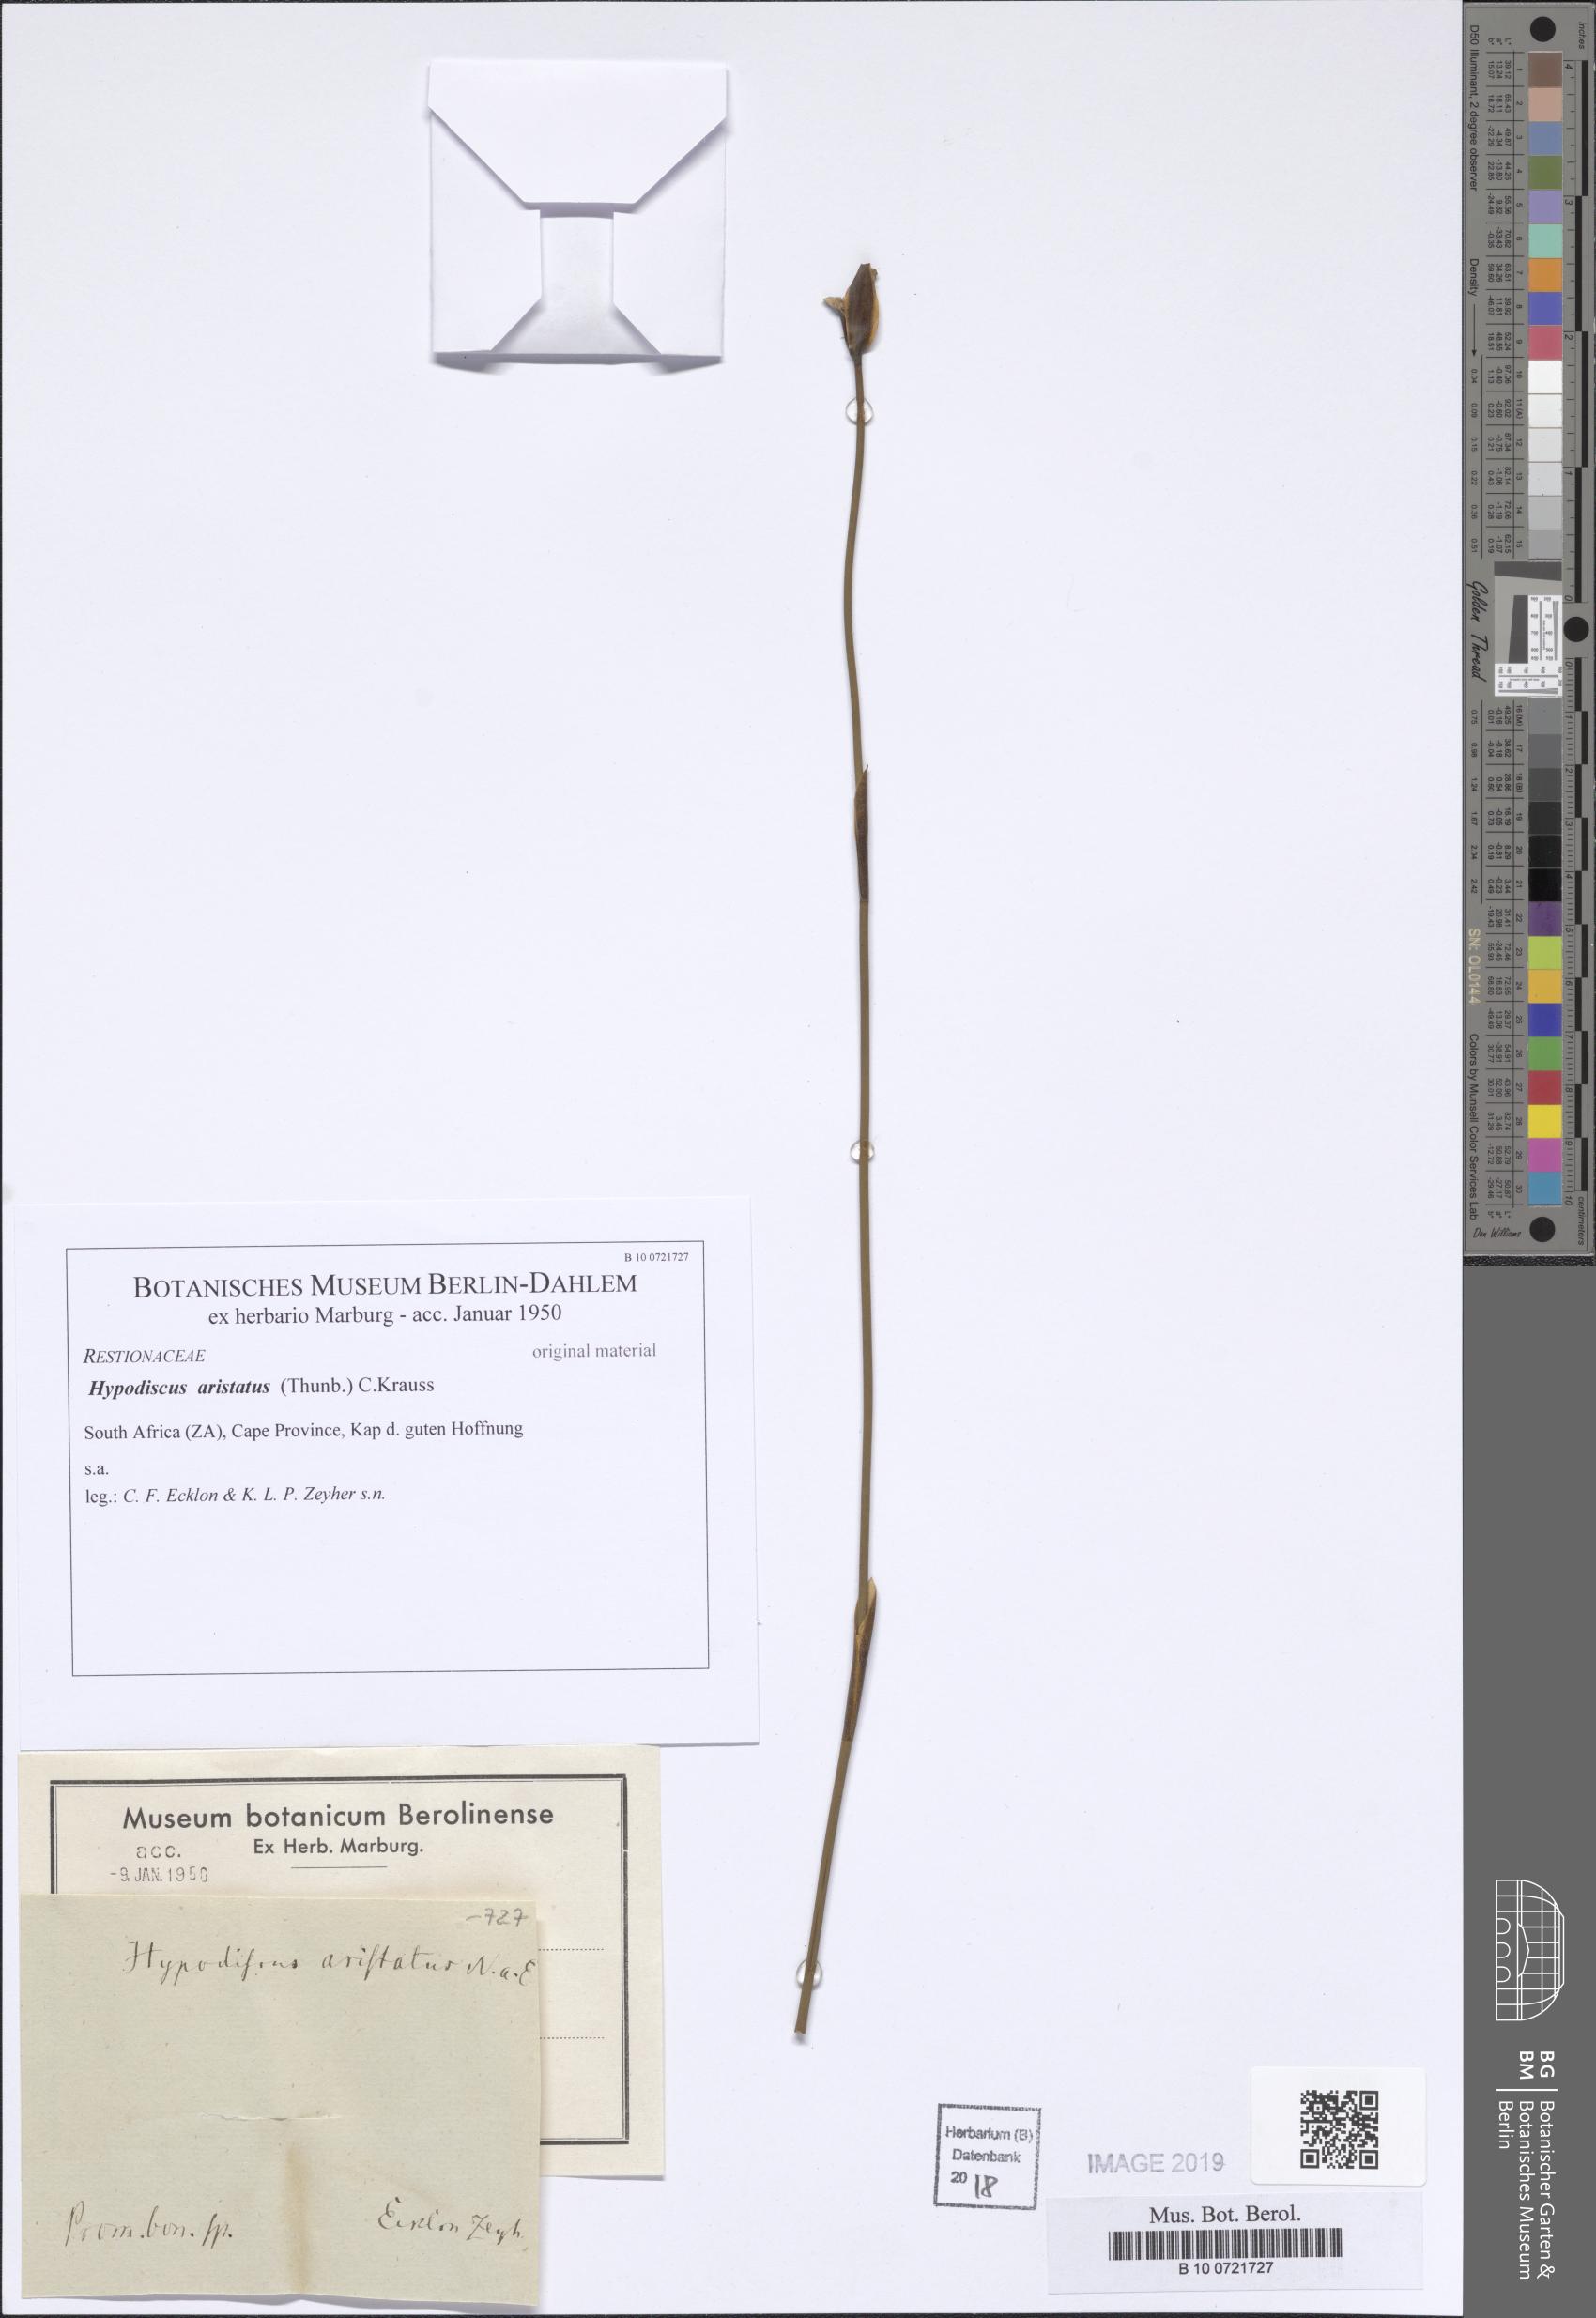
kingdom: Plantae
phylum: Tracheophyta
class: Liliopsida
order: Poales
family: Restionaceae
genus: Hypodiscus
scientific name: Hypodiscus aristatus
